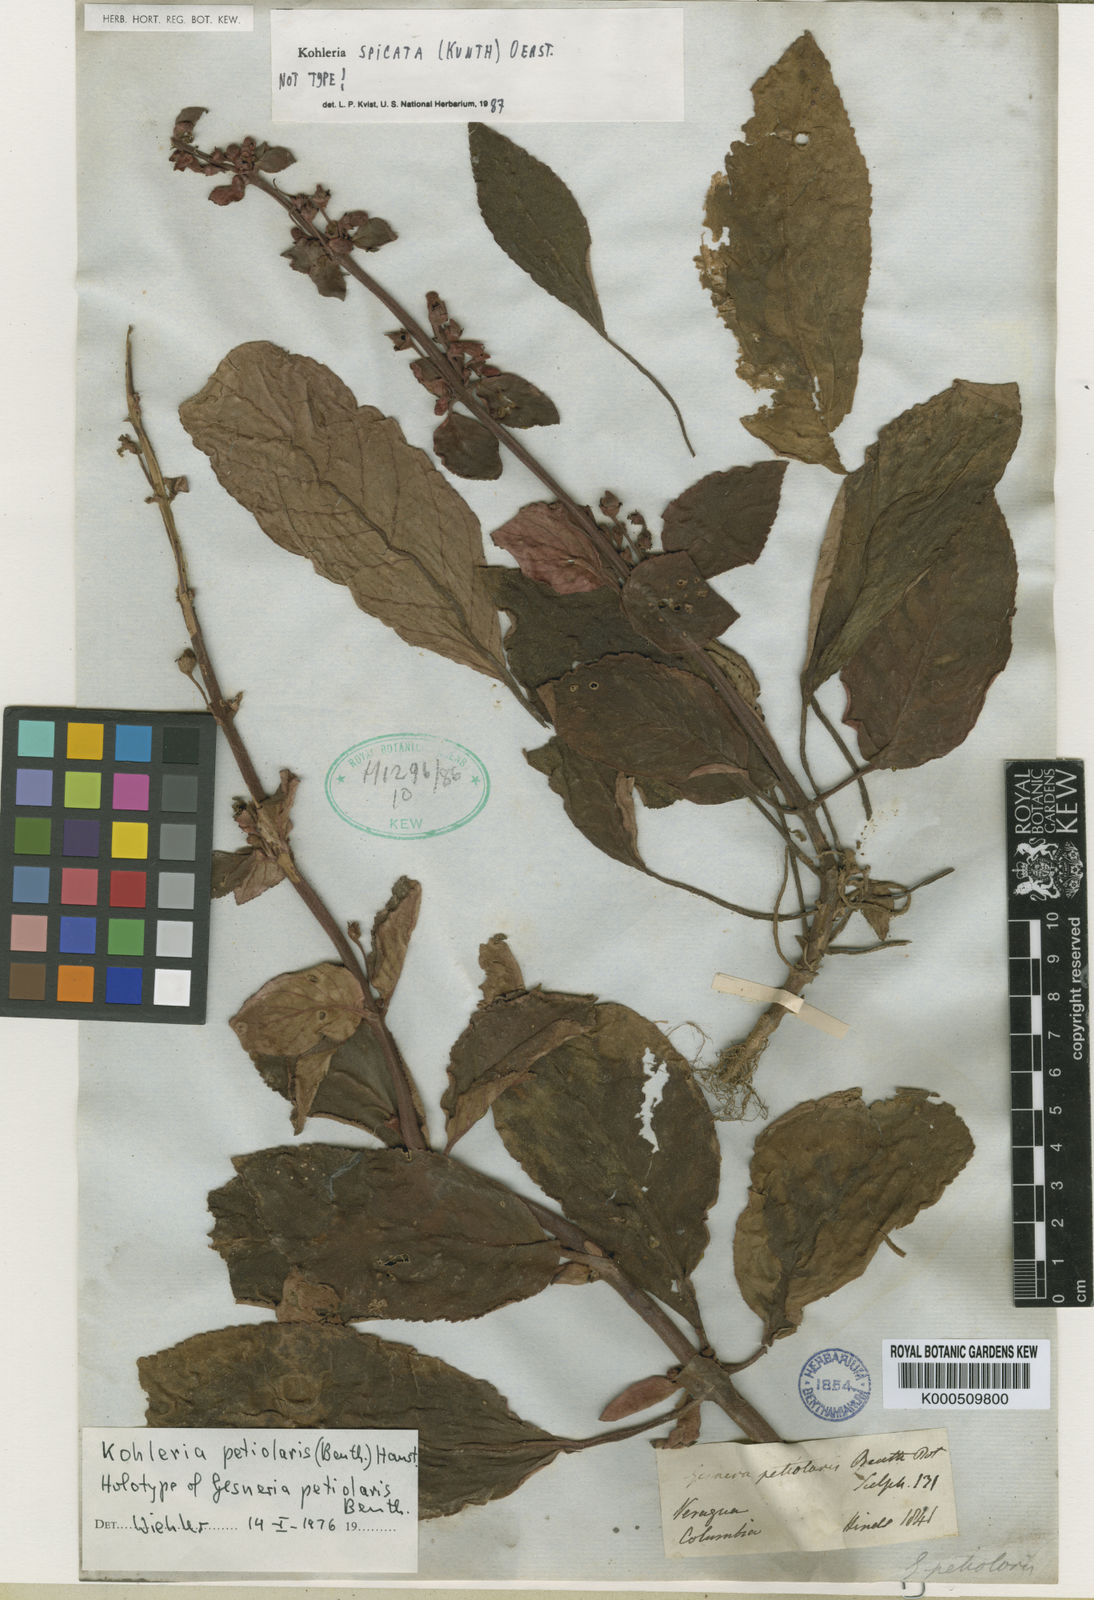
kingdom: Plantae
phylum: Tracheophyta
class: Magnoliopsida
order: Lamiales
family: Gesneriaceae
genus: Kohleria
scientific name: Kohleria spicata
